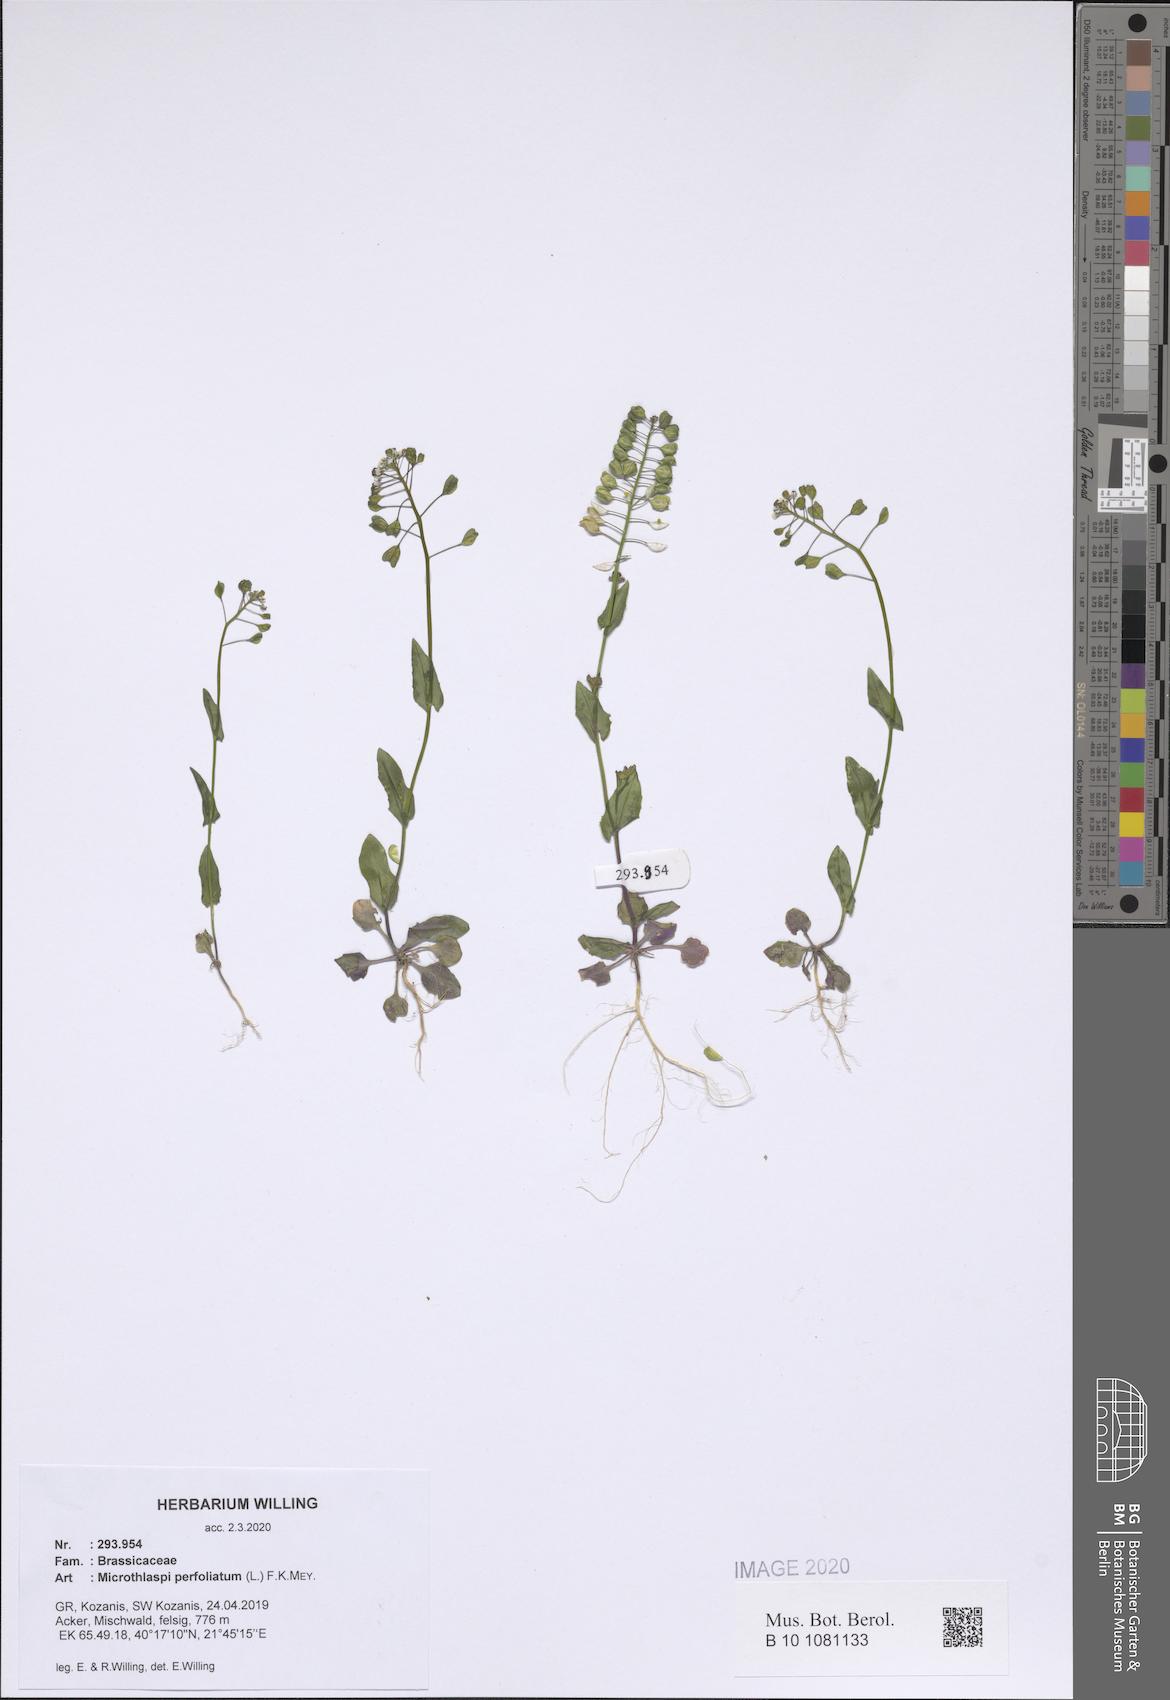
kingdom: Plantae
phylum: Tracheophyta
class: Magnoliopsida
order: Brassicales
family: Brassicaceae
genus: Noccaea
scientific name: Noccaea perfoliata
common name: Perfoliate pennycress
